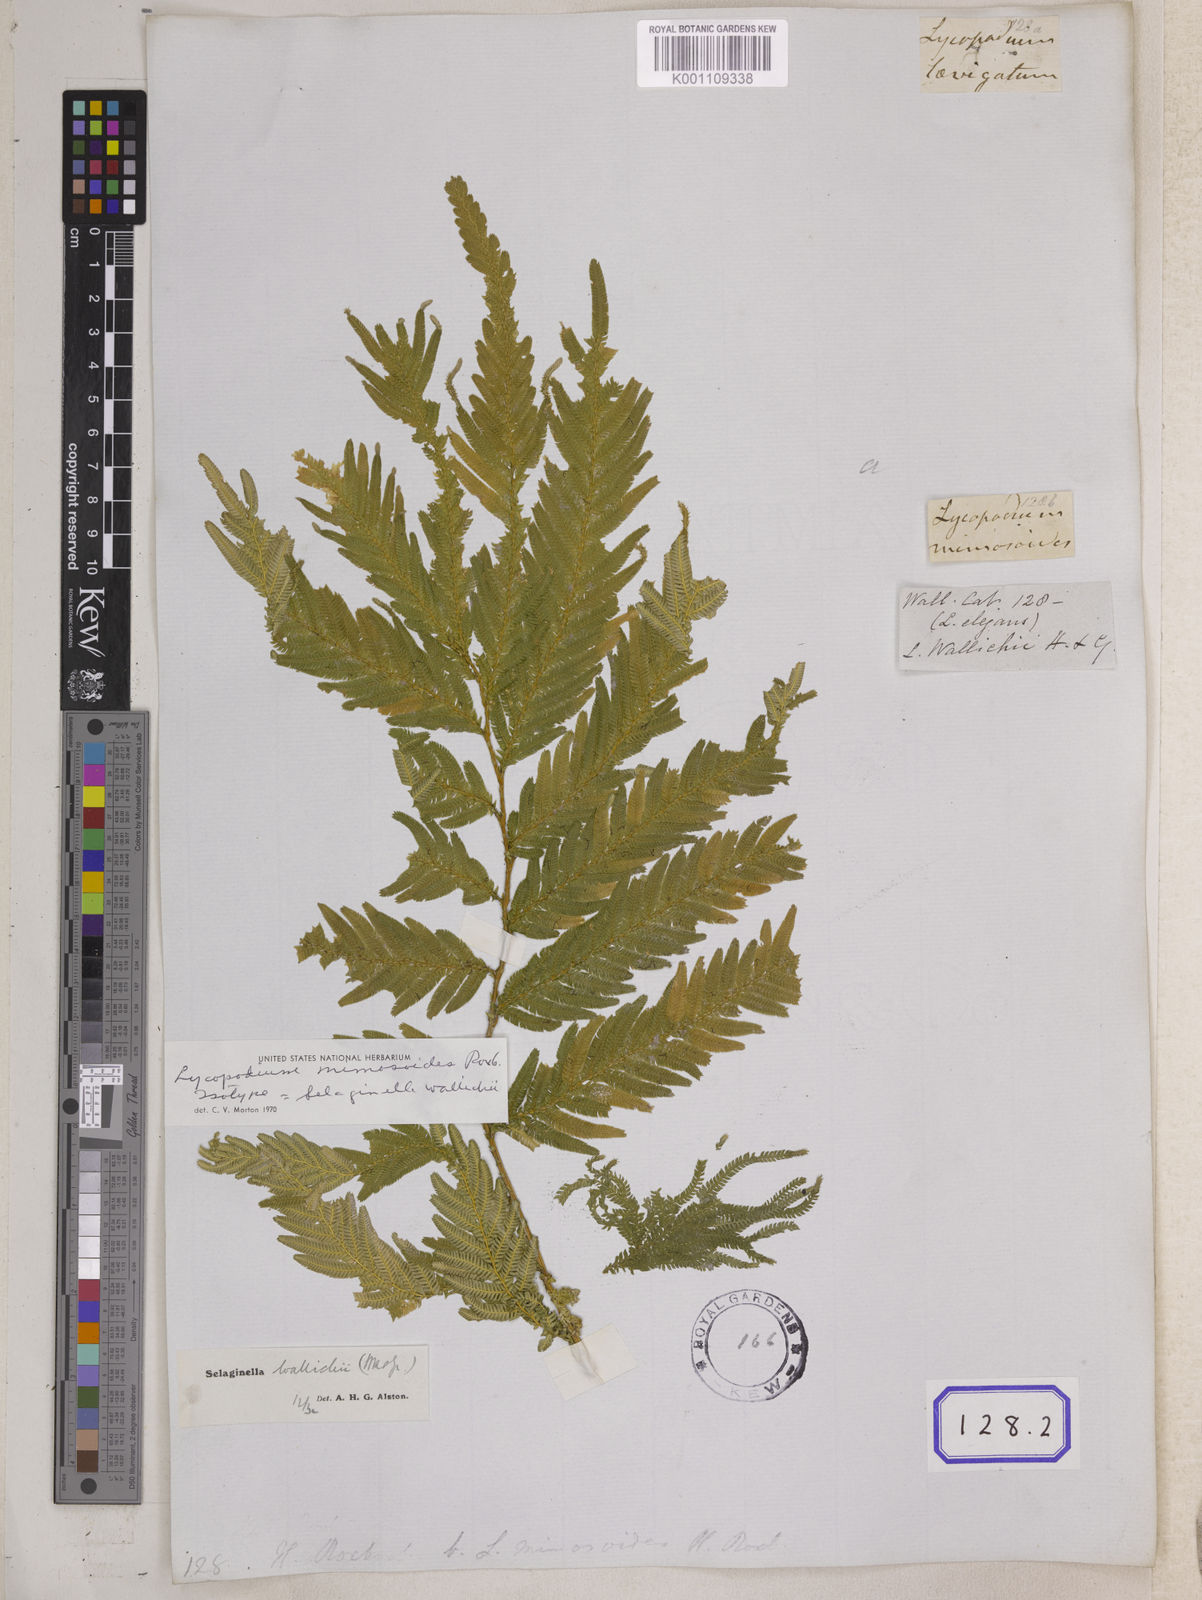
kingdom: Plantae
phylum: Tracheophyta
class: Lycopodiopsida
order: Selaginellales
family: Selaginellaceae
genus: Selaginella
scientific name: Selaginella wallichii
